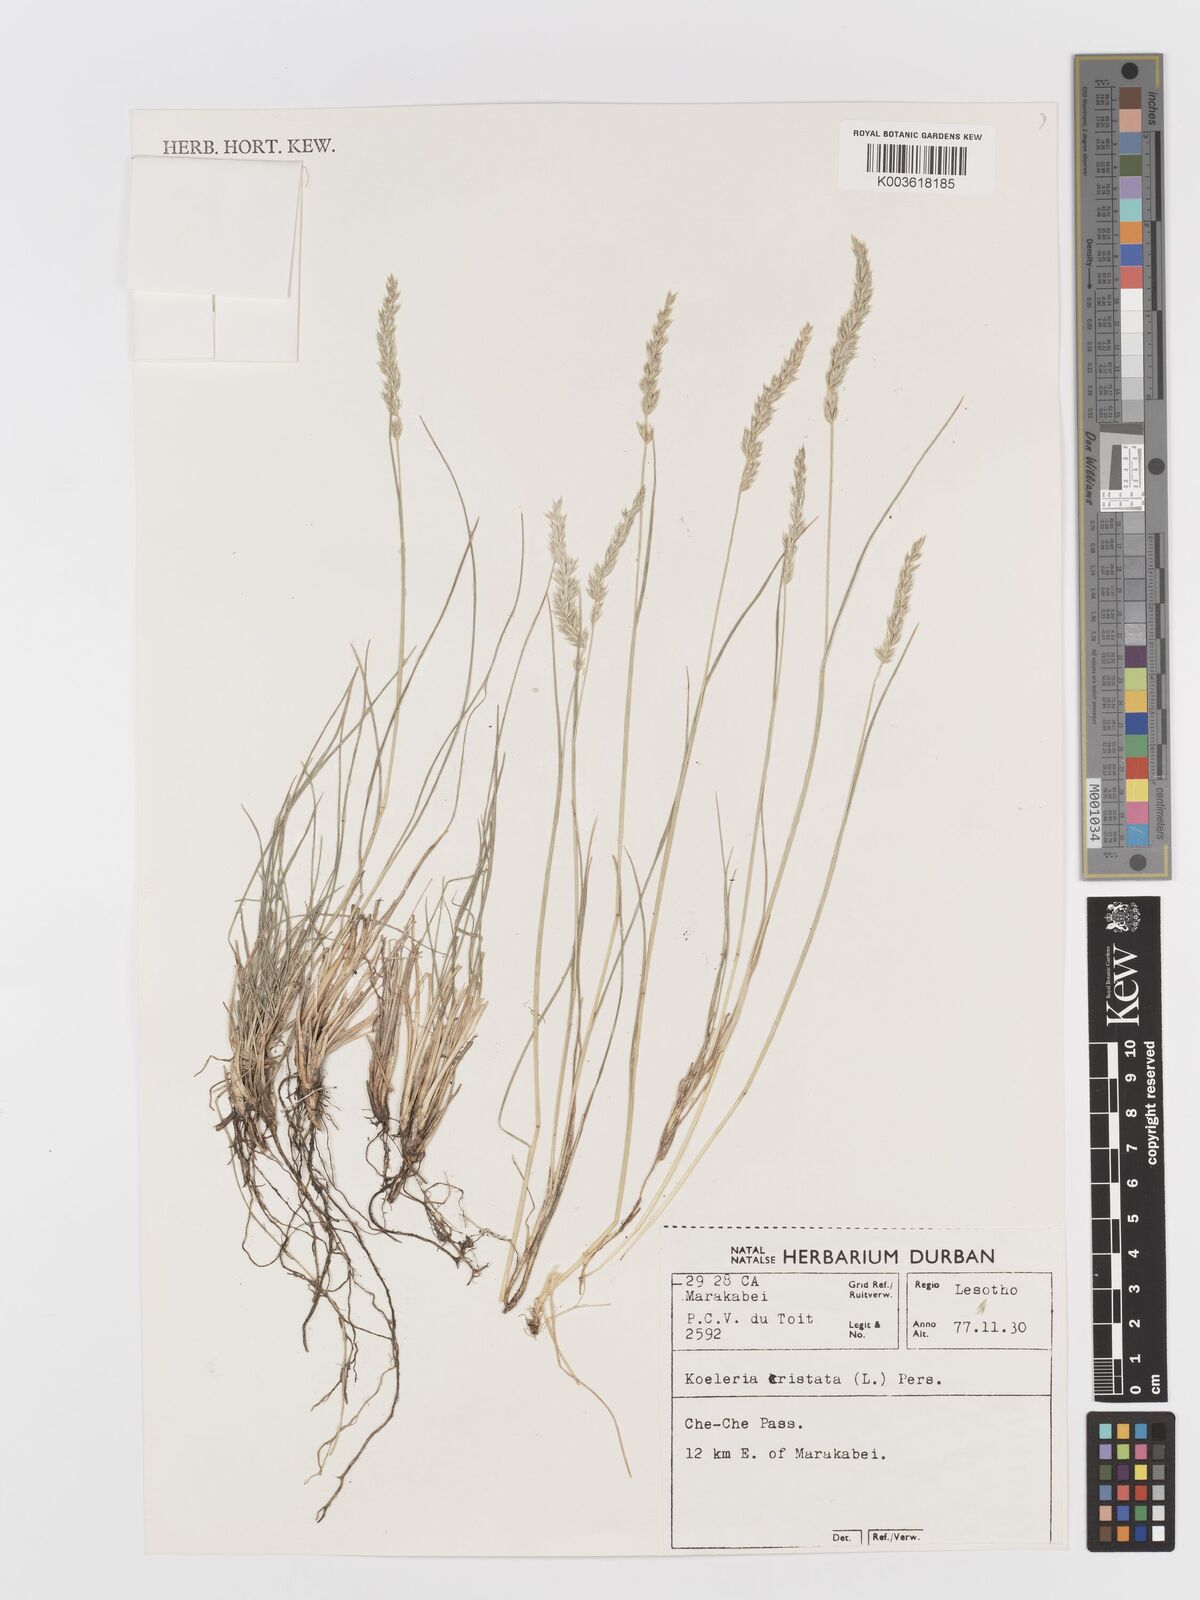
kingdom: Plantae
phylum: Tracheophyta
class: Liliopsida
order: Poales
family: Poaceae
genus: Koeleria
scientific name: Koeleria capensis
